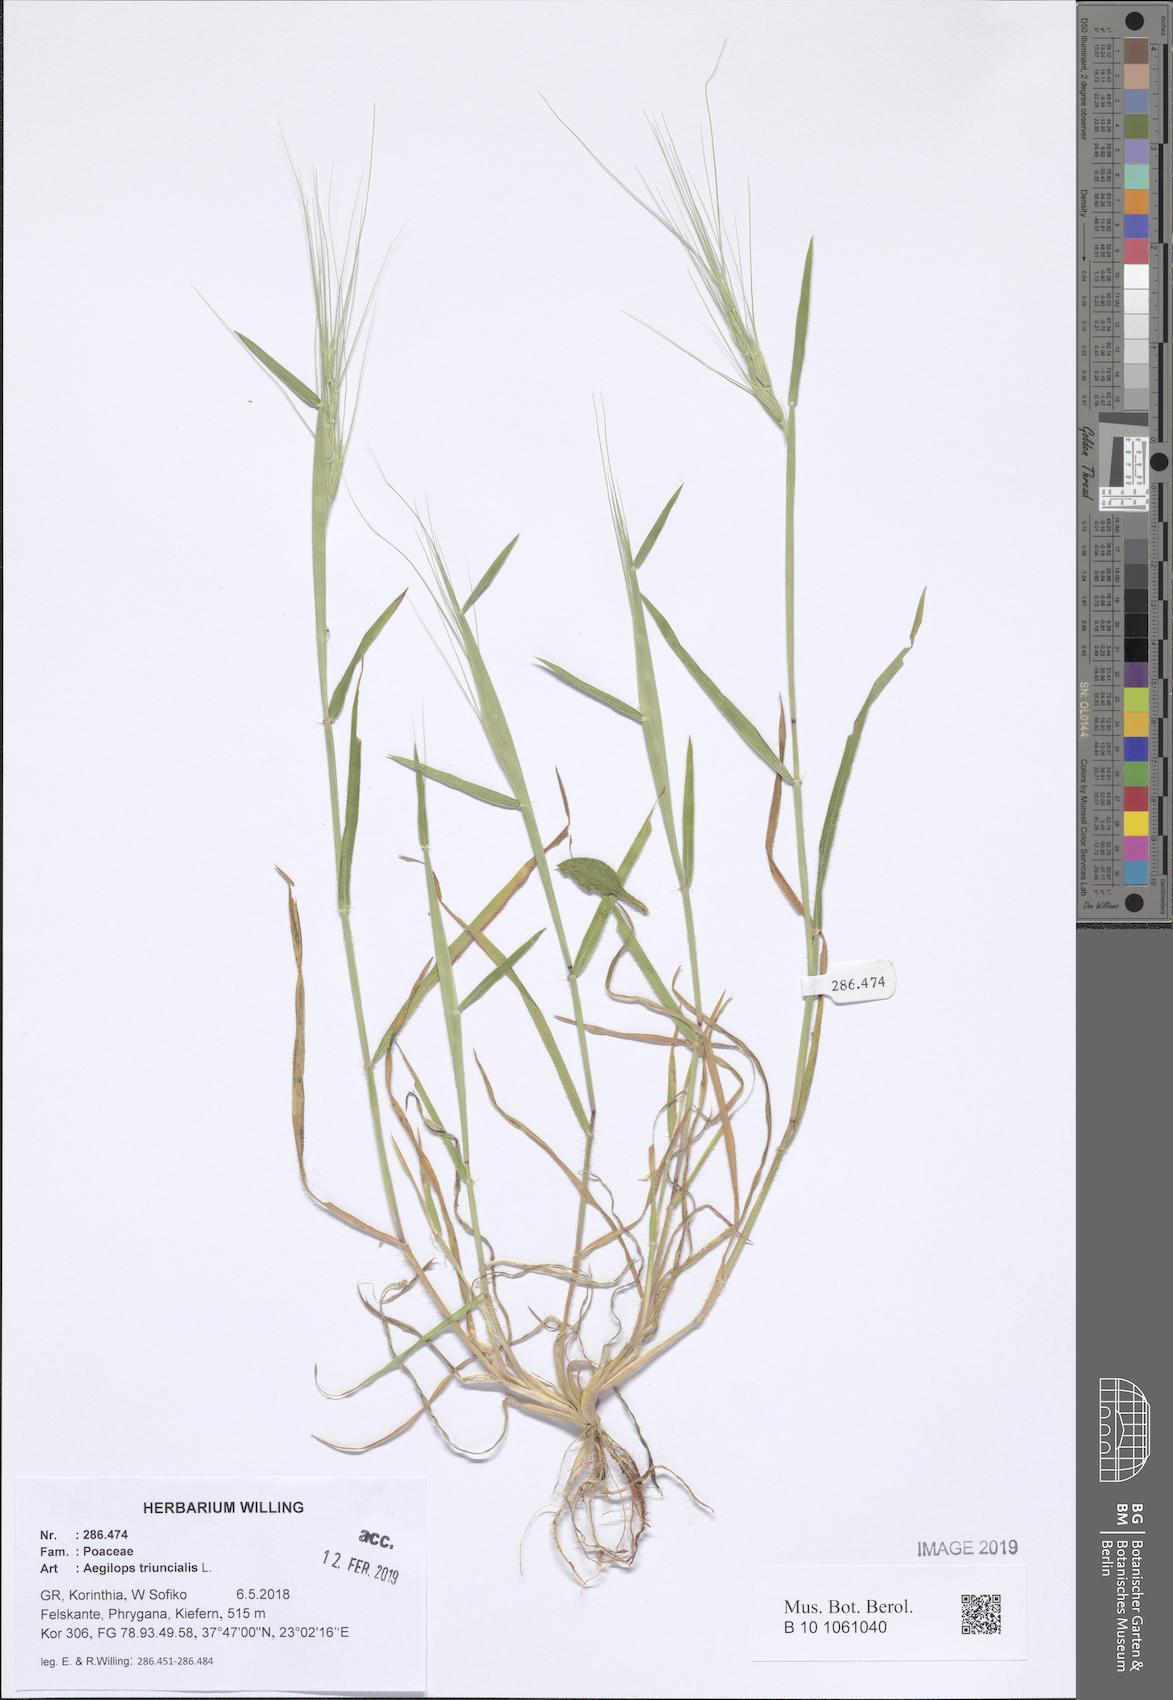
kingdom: Plantae
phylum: Tracheophyta
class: Liliopsida
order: Poales
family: Poaceae
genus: Aegilops
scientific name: Aegilops triuncialis
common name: Barb goat grass
